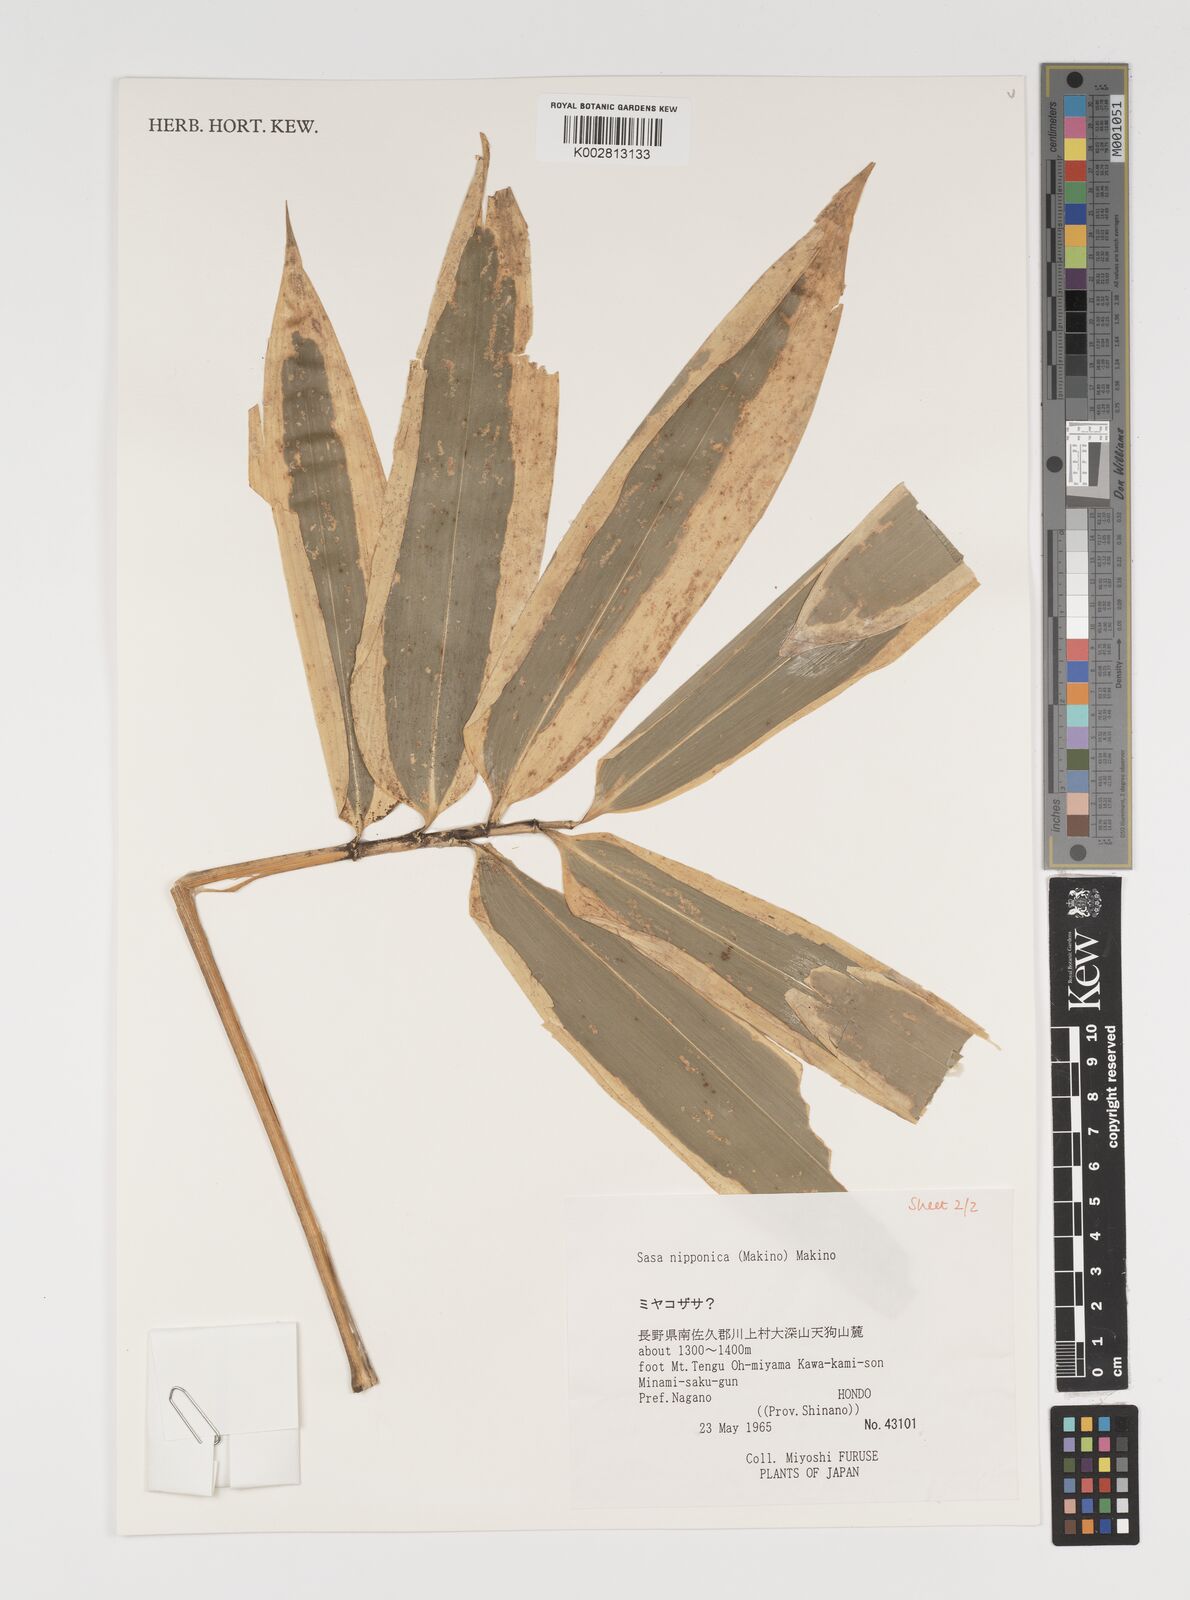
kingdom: Plantae
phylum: Tracheophyta
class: Liliopsida
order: Poales
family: Poaceae
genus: Sasa
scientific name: Sasa nipponica
